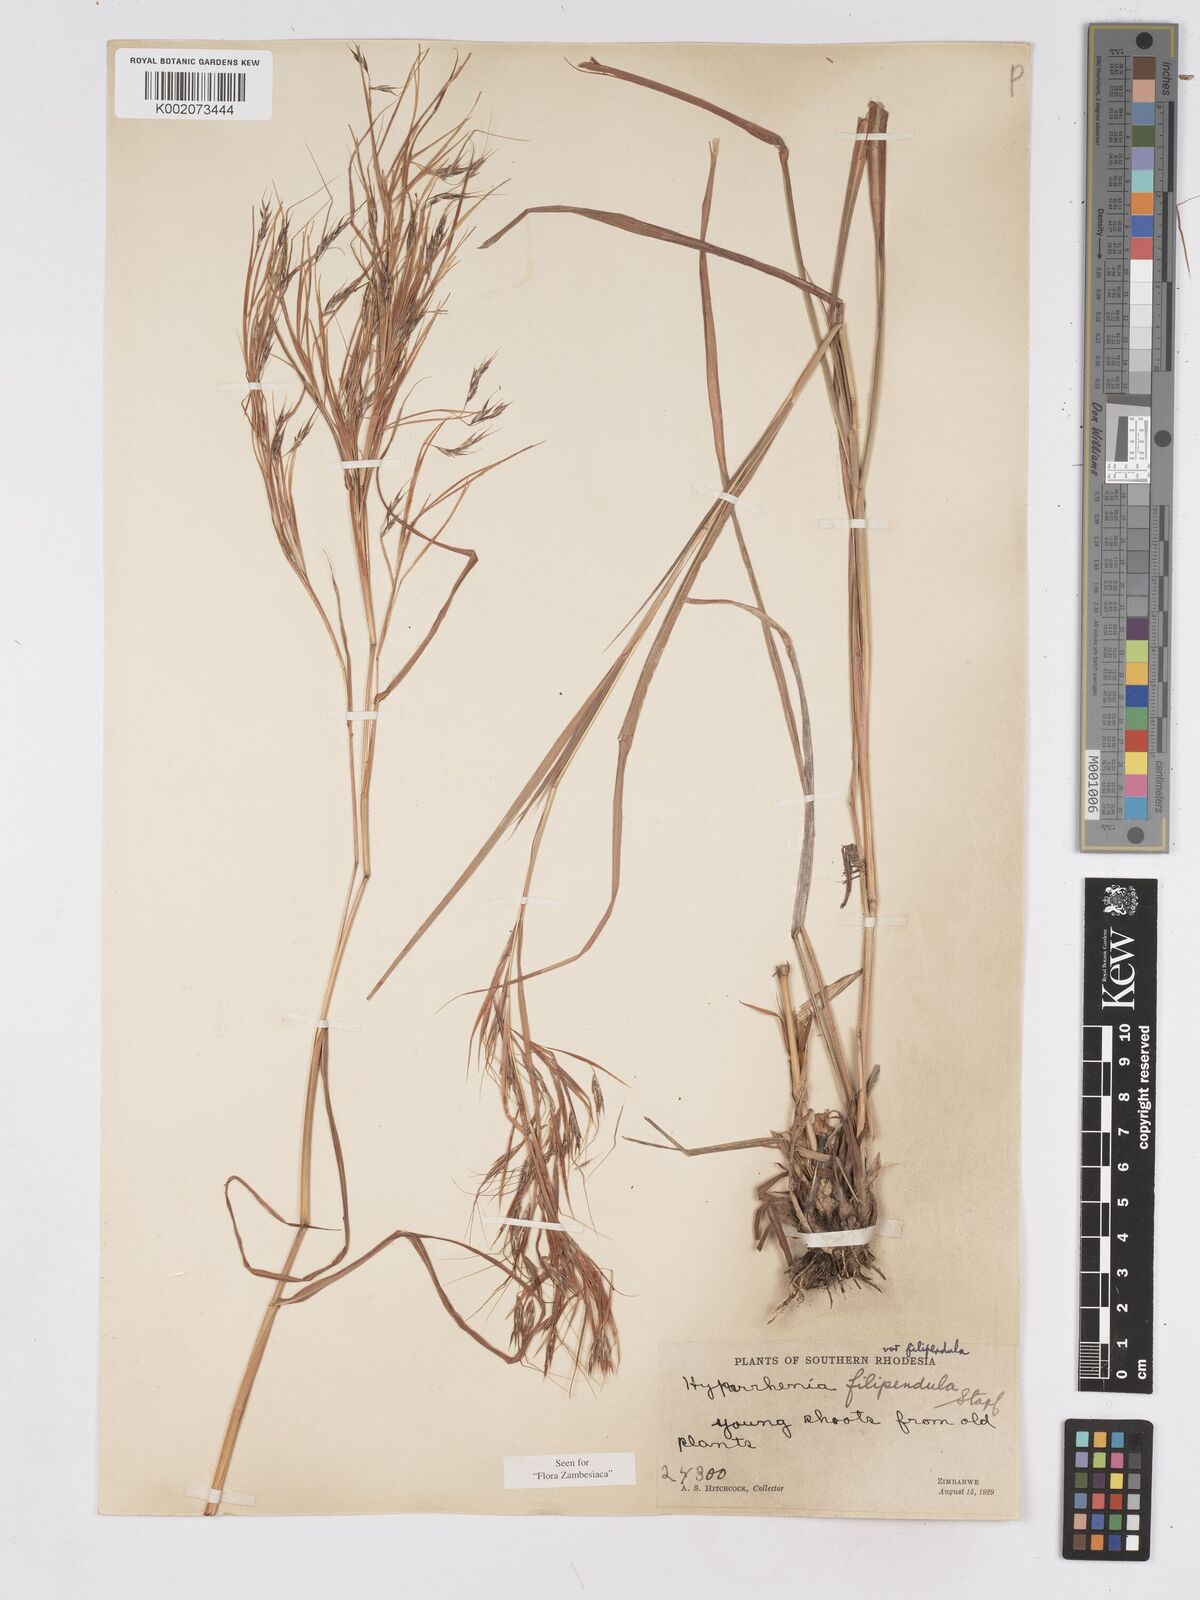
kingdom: Plantae
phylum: Tracheophyta
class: Liliopsida
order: Poales
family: Poaceae
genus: Hyparrhenia
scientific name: Hyparrhenia filipendula
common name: Tambookie grass
